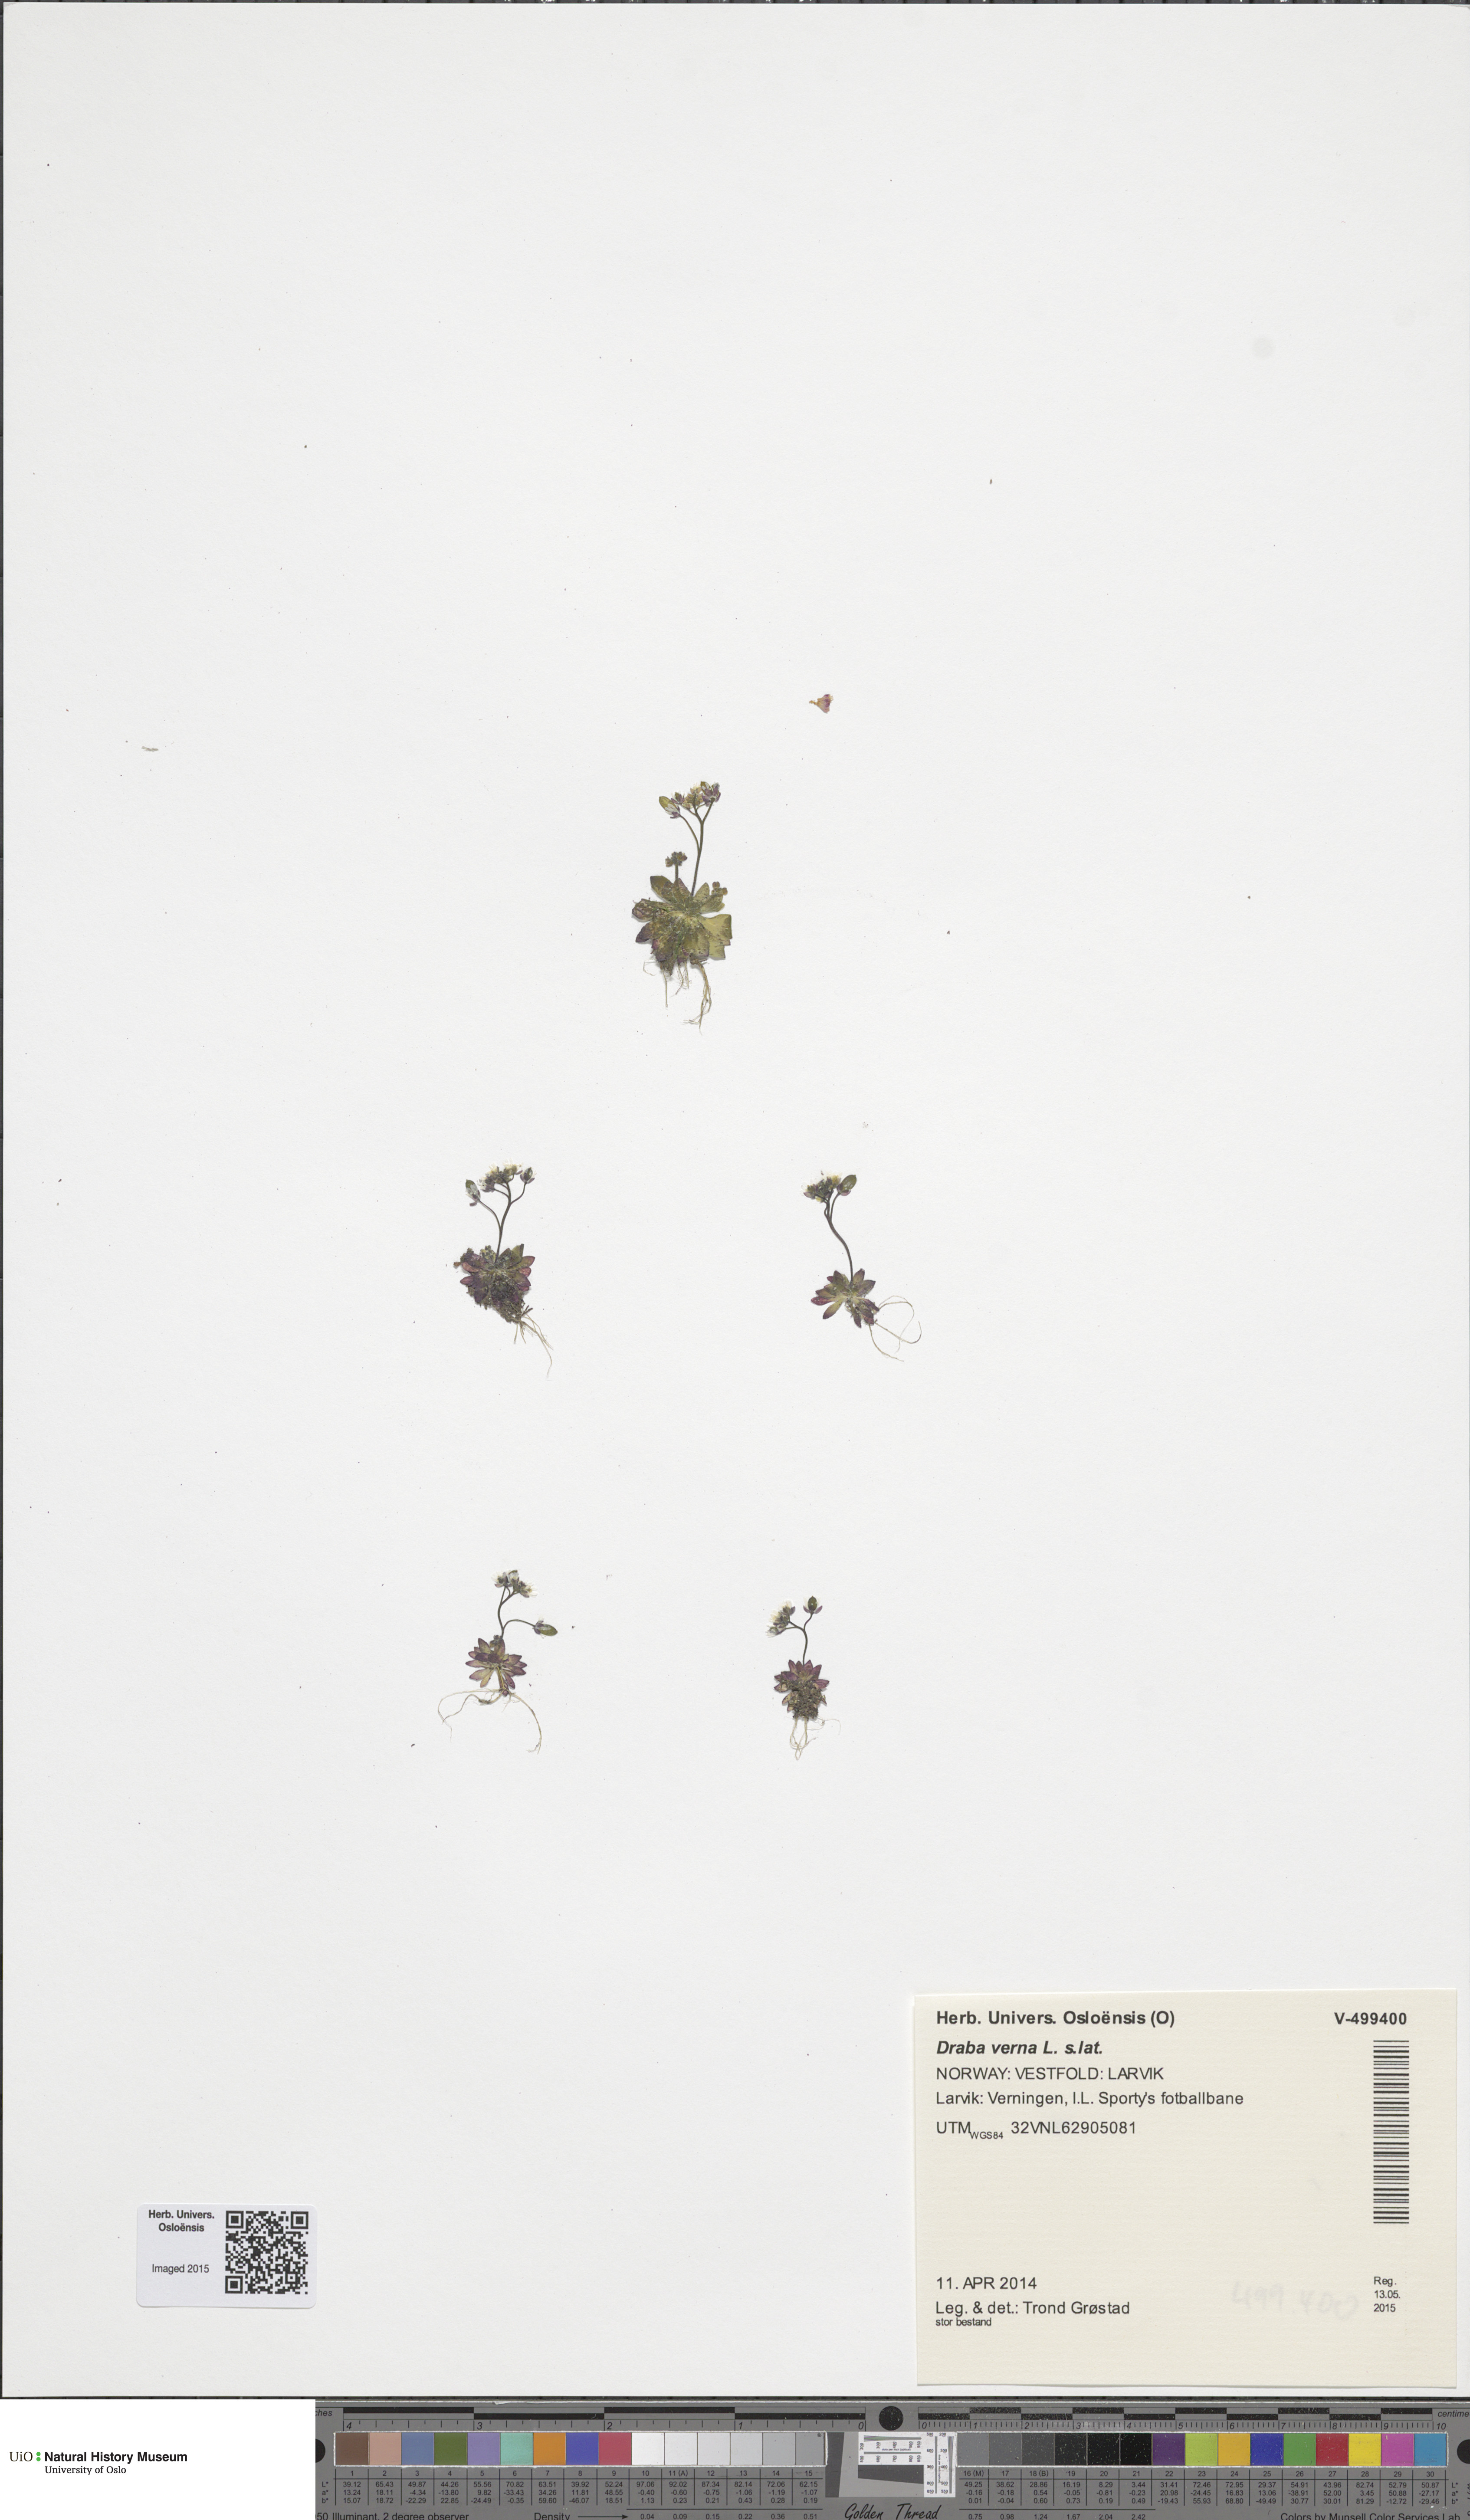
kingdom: Plantae
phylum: Tracheophyta
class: Magnoliopsida
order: Brassicales
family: Brassicaceae
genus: Draba
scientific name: Draba verna
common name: Spring draba
